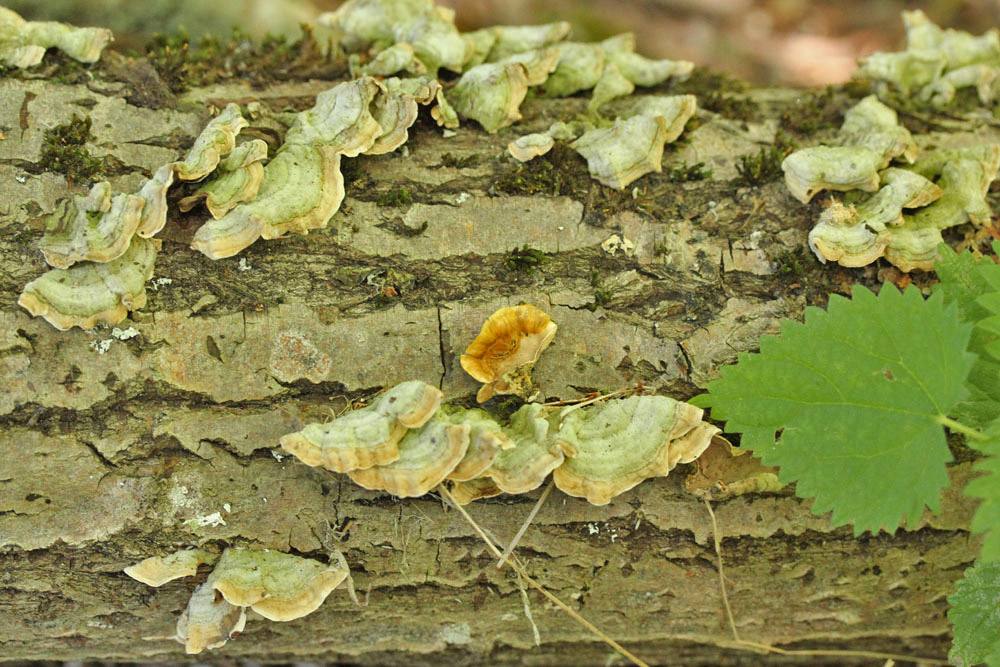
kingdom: Fungi
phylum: Basidiomycota
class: Agaricomycetes
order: Russulales
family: Stereaceae
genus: Stereum
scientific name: Stereum subtomentosum
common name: smuk lædersvamp
